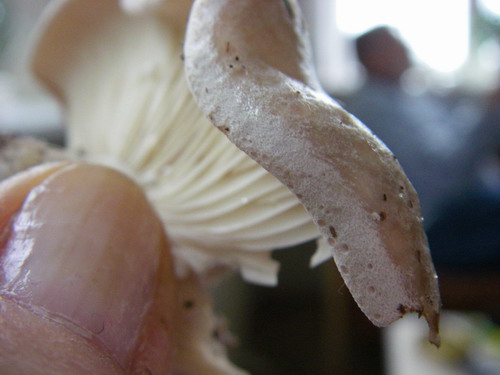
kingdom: Fungi
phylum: Basidiomycota
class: Agaricomycetes
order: Russulales
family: Russulaceae
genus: Lactarius
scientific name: Lactarius blennius
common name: dråbeplettet mælkehat
